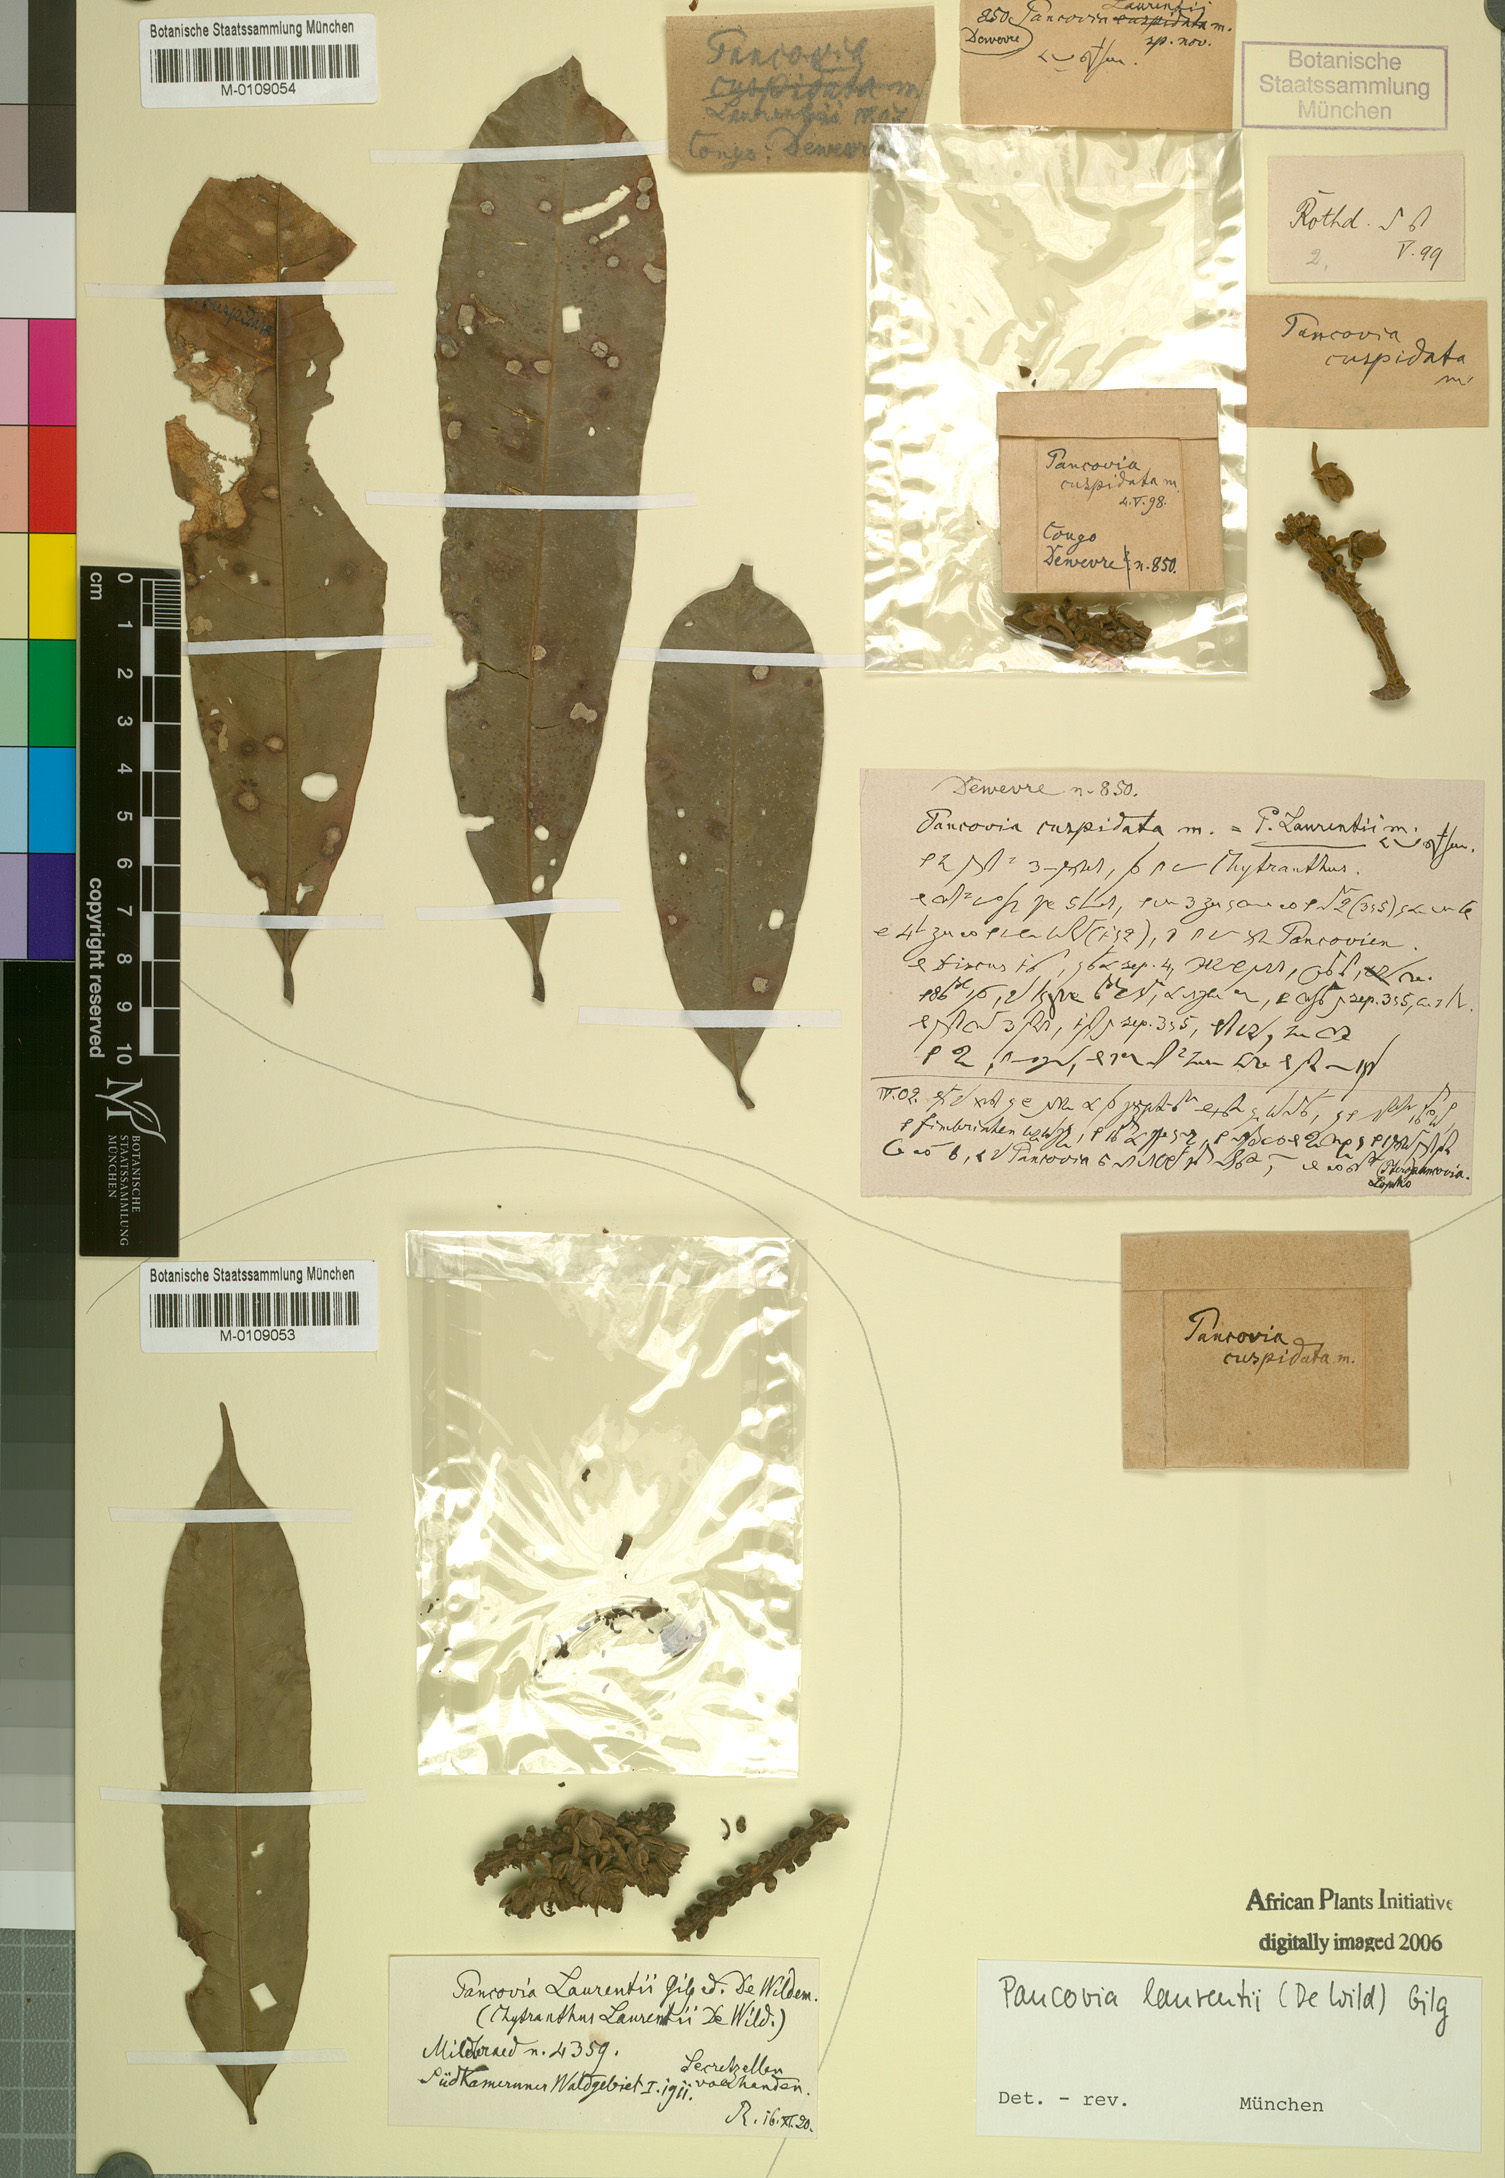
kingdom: Plantae
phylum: Tracheophyta
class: Magnoliopsida
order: Sapindales
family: Sapindaceae
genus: Pancovia
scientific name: Pancovia laurentii
